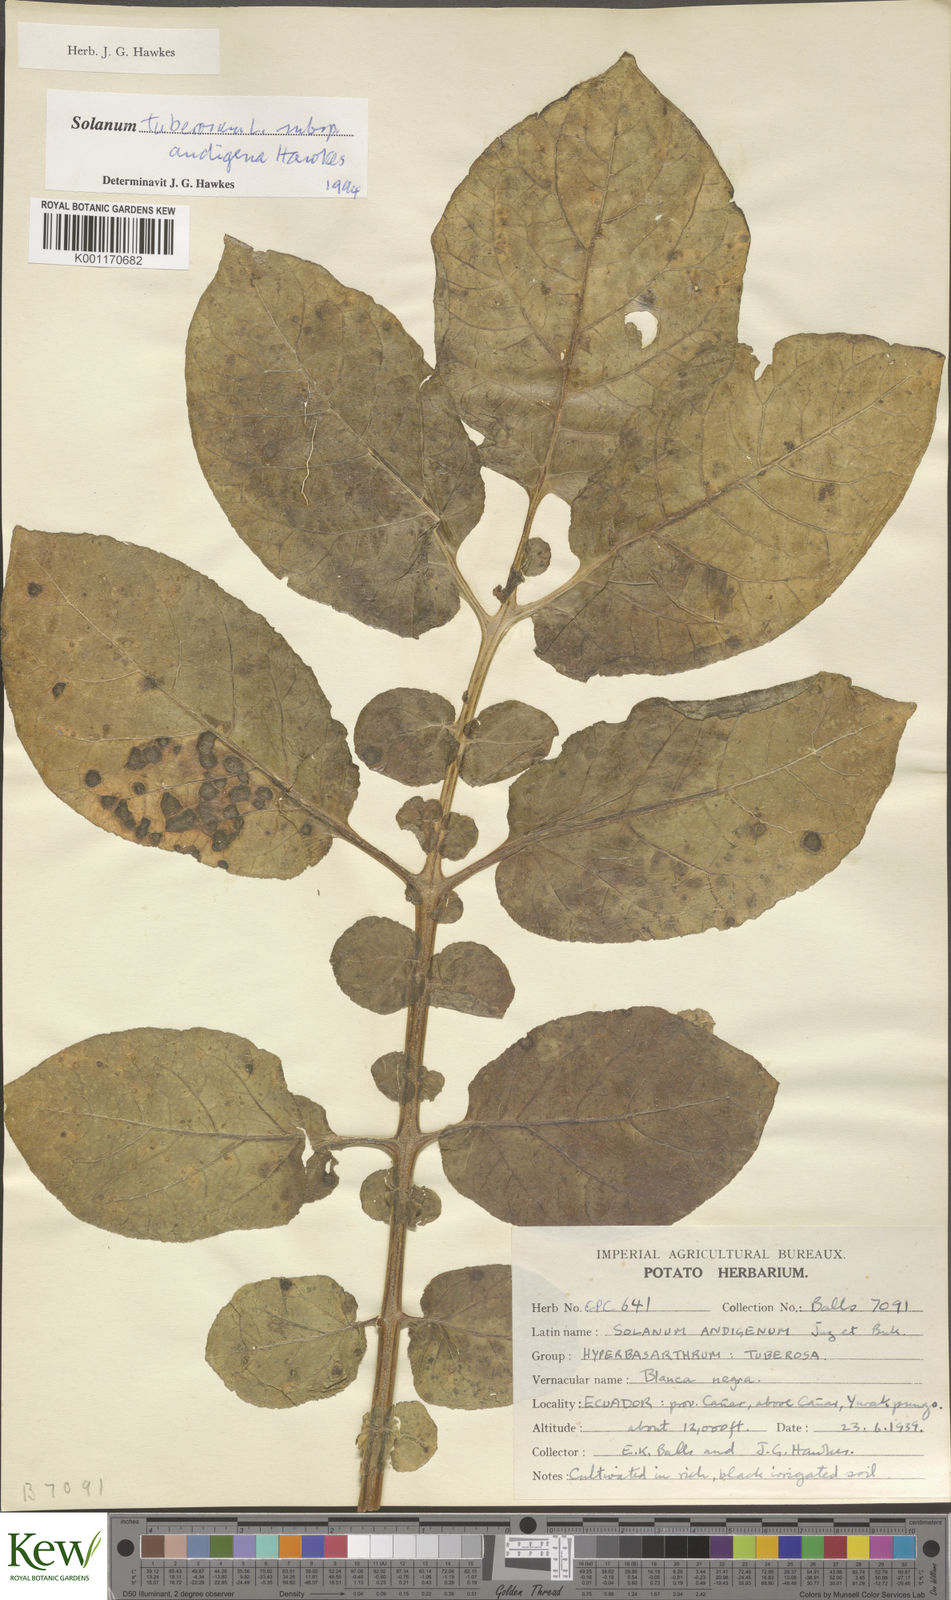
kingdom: Plantae
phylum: Tracheophyta
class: Magnoliopsida
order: Solanales
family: Solanaceae
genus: Solanum
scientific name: Solanum tuberosum
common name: Potato
